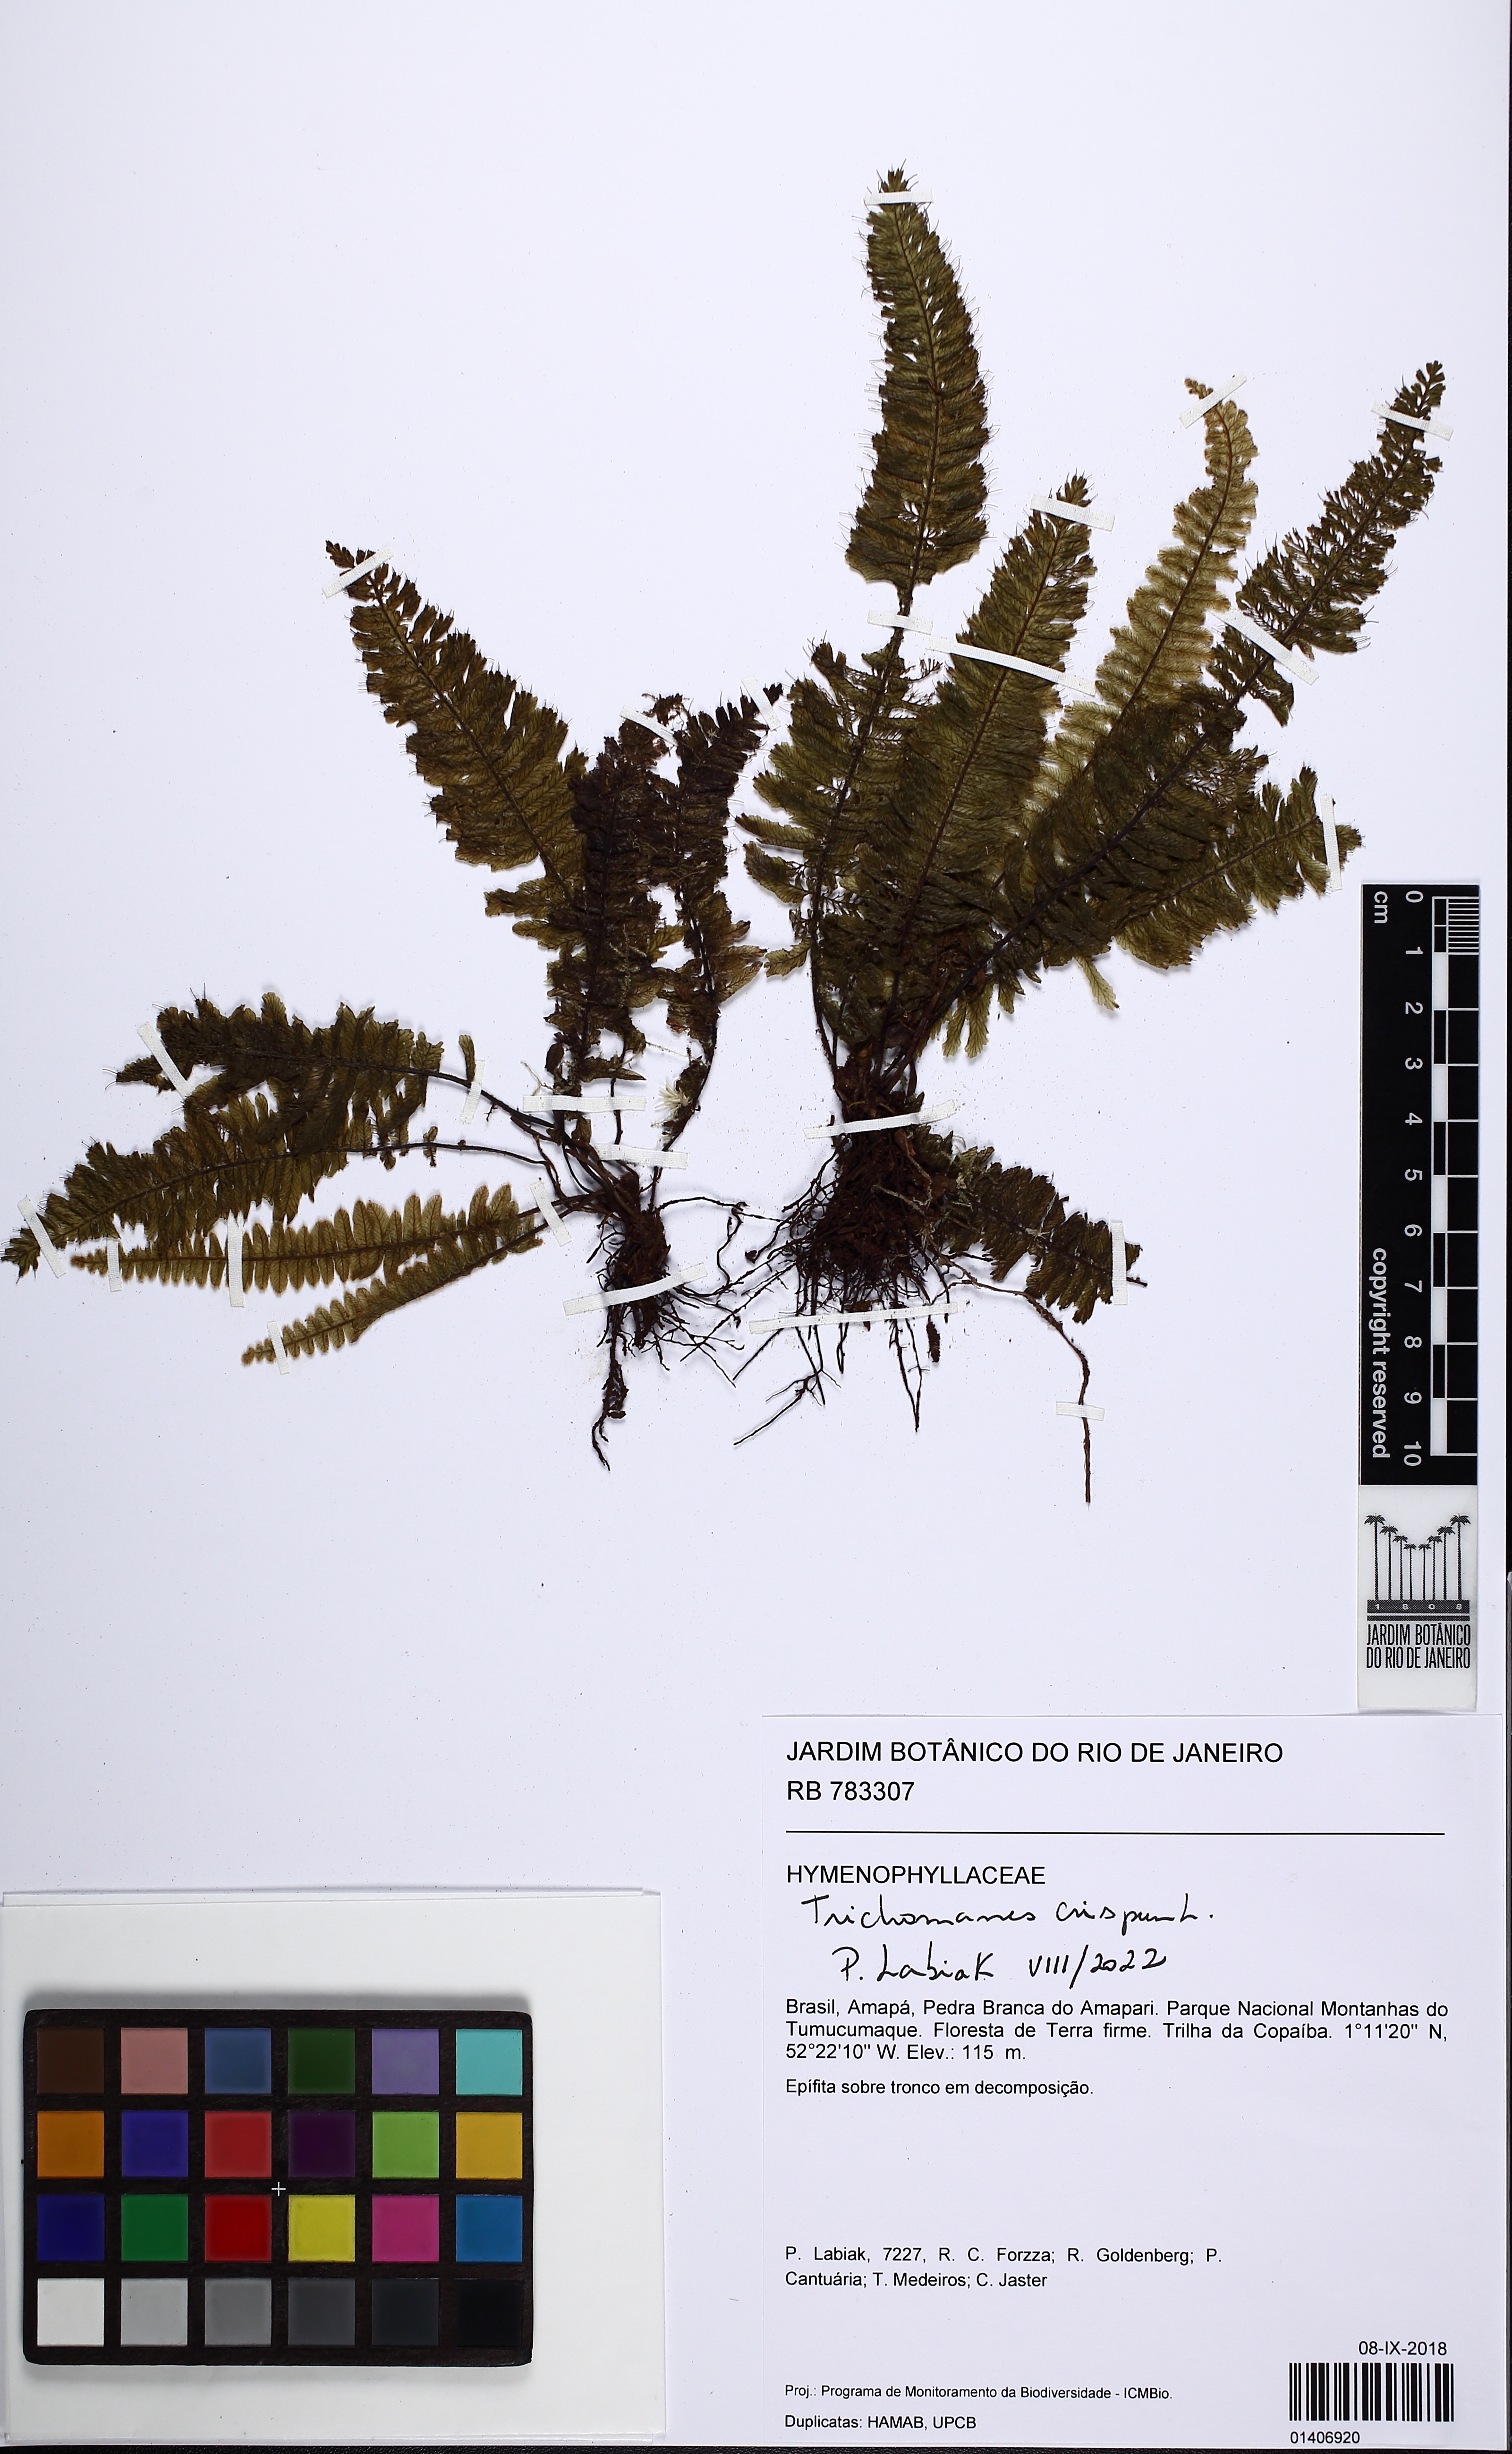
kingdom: Plantae
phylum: Tracheophyta
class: Polypodiopsida
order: Hymenophyllales
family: Hymenophyllaceae
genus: Trichomanes
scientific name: Trichomanes crispum
